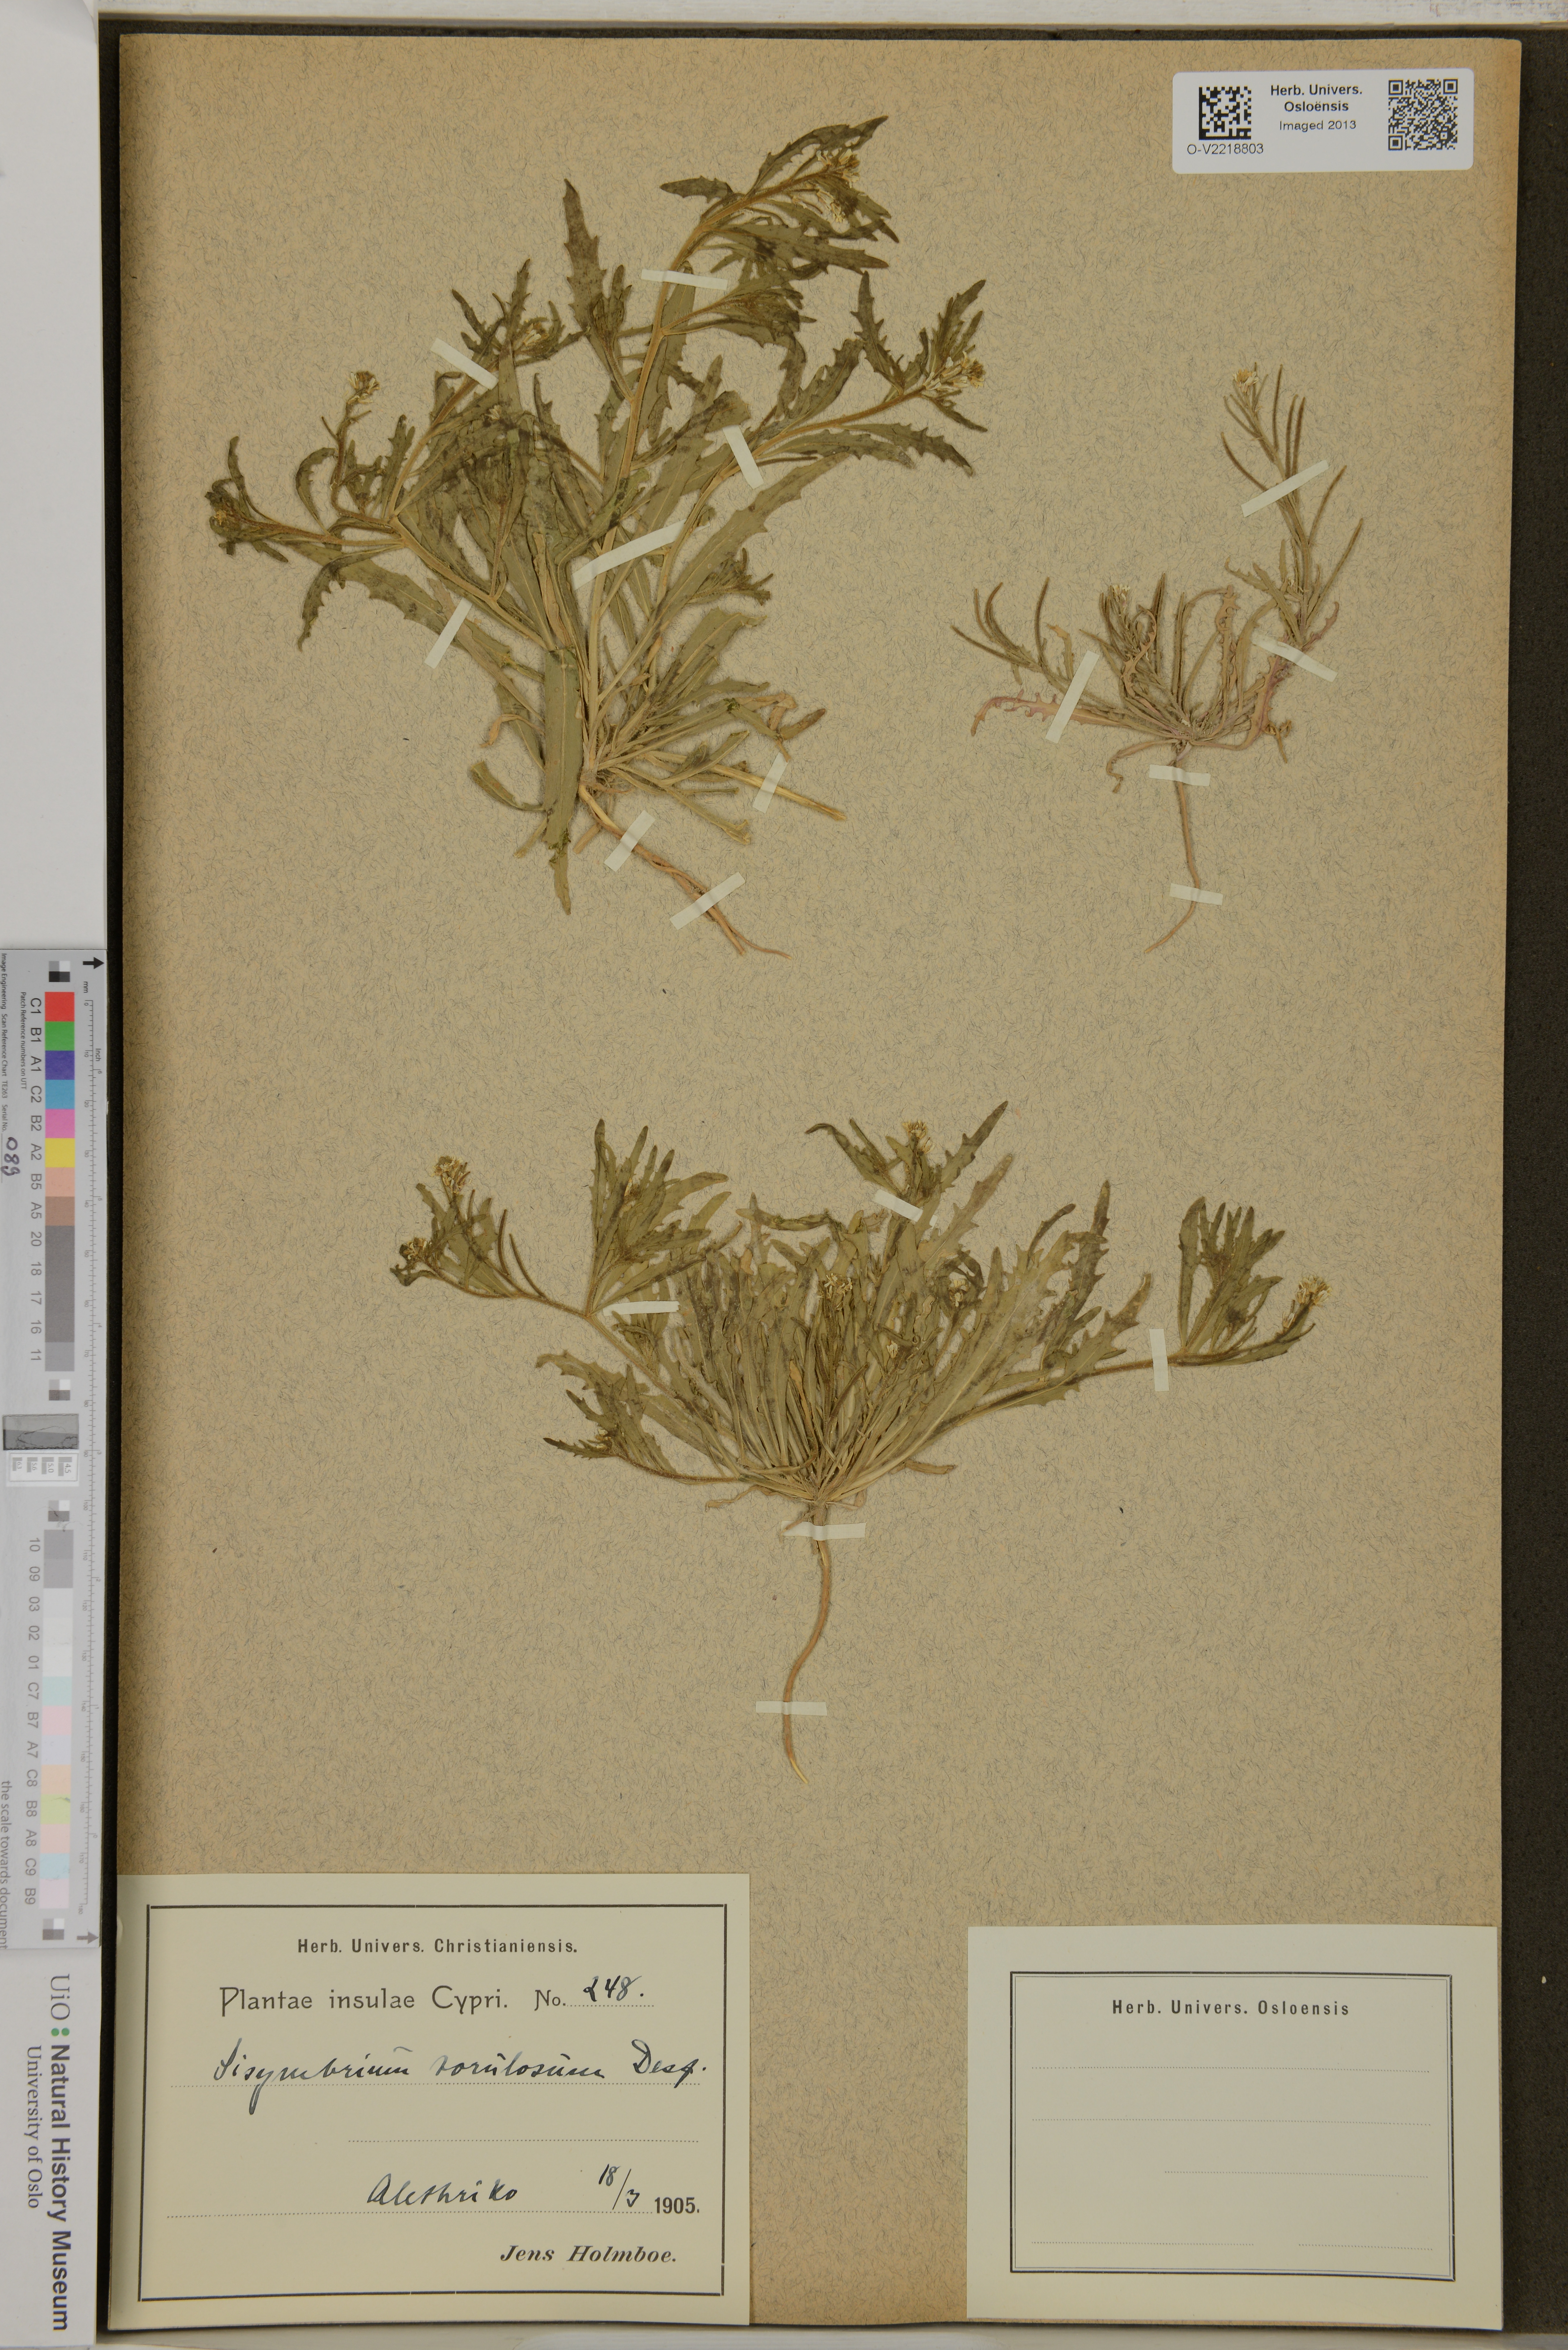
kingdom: Plantae
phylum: Tracheophyta
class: Magnoliopsida
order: Brassicales
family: Brassicaceae
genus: Neotorularia
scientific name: Neotorularia torulosa
